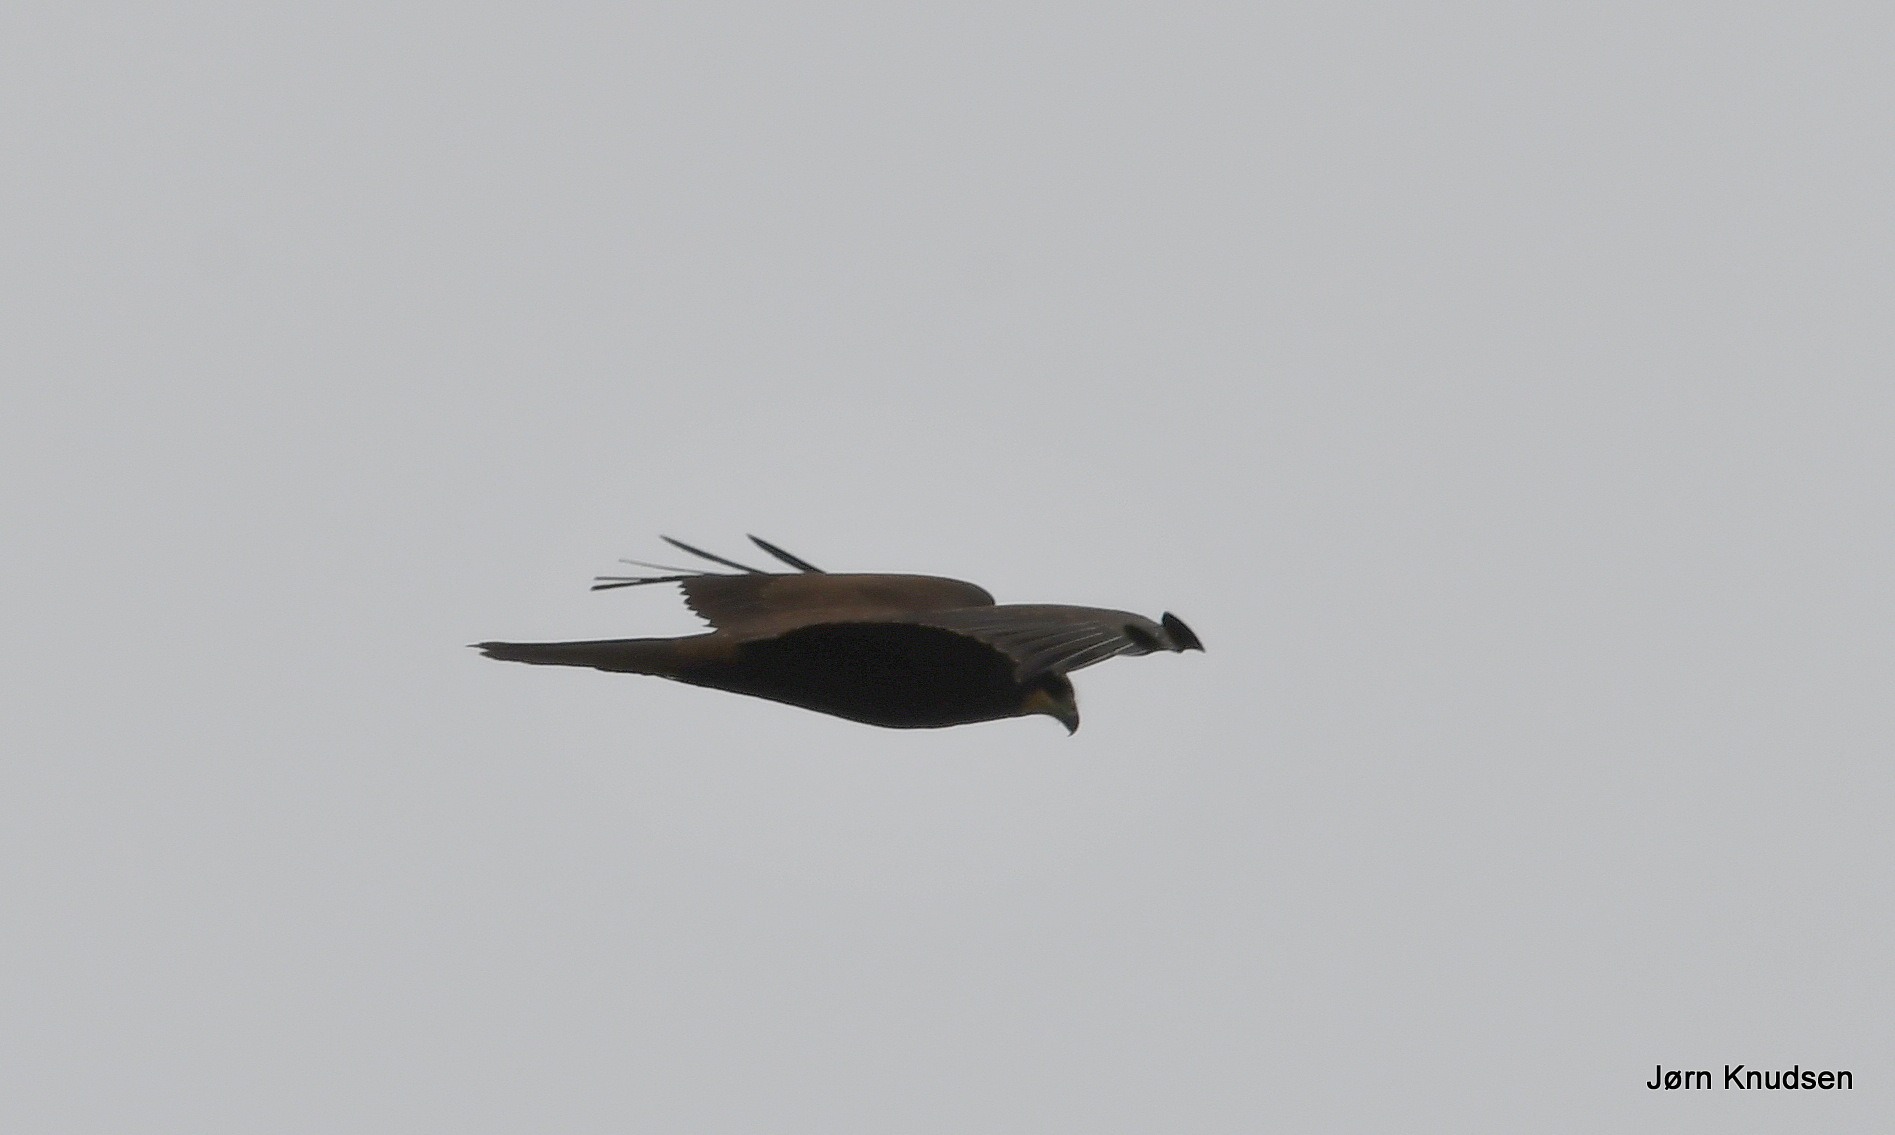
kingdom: Animalia
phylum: Chordata
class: Aves
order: Accipitriformes
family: Accipitridae
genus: Circus
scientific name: Circus aeruginosus
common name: Rørhøg
